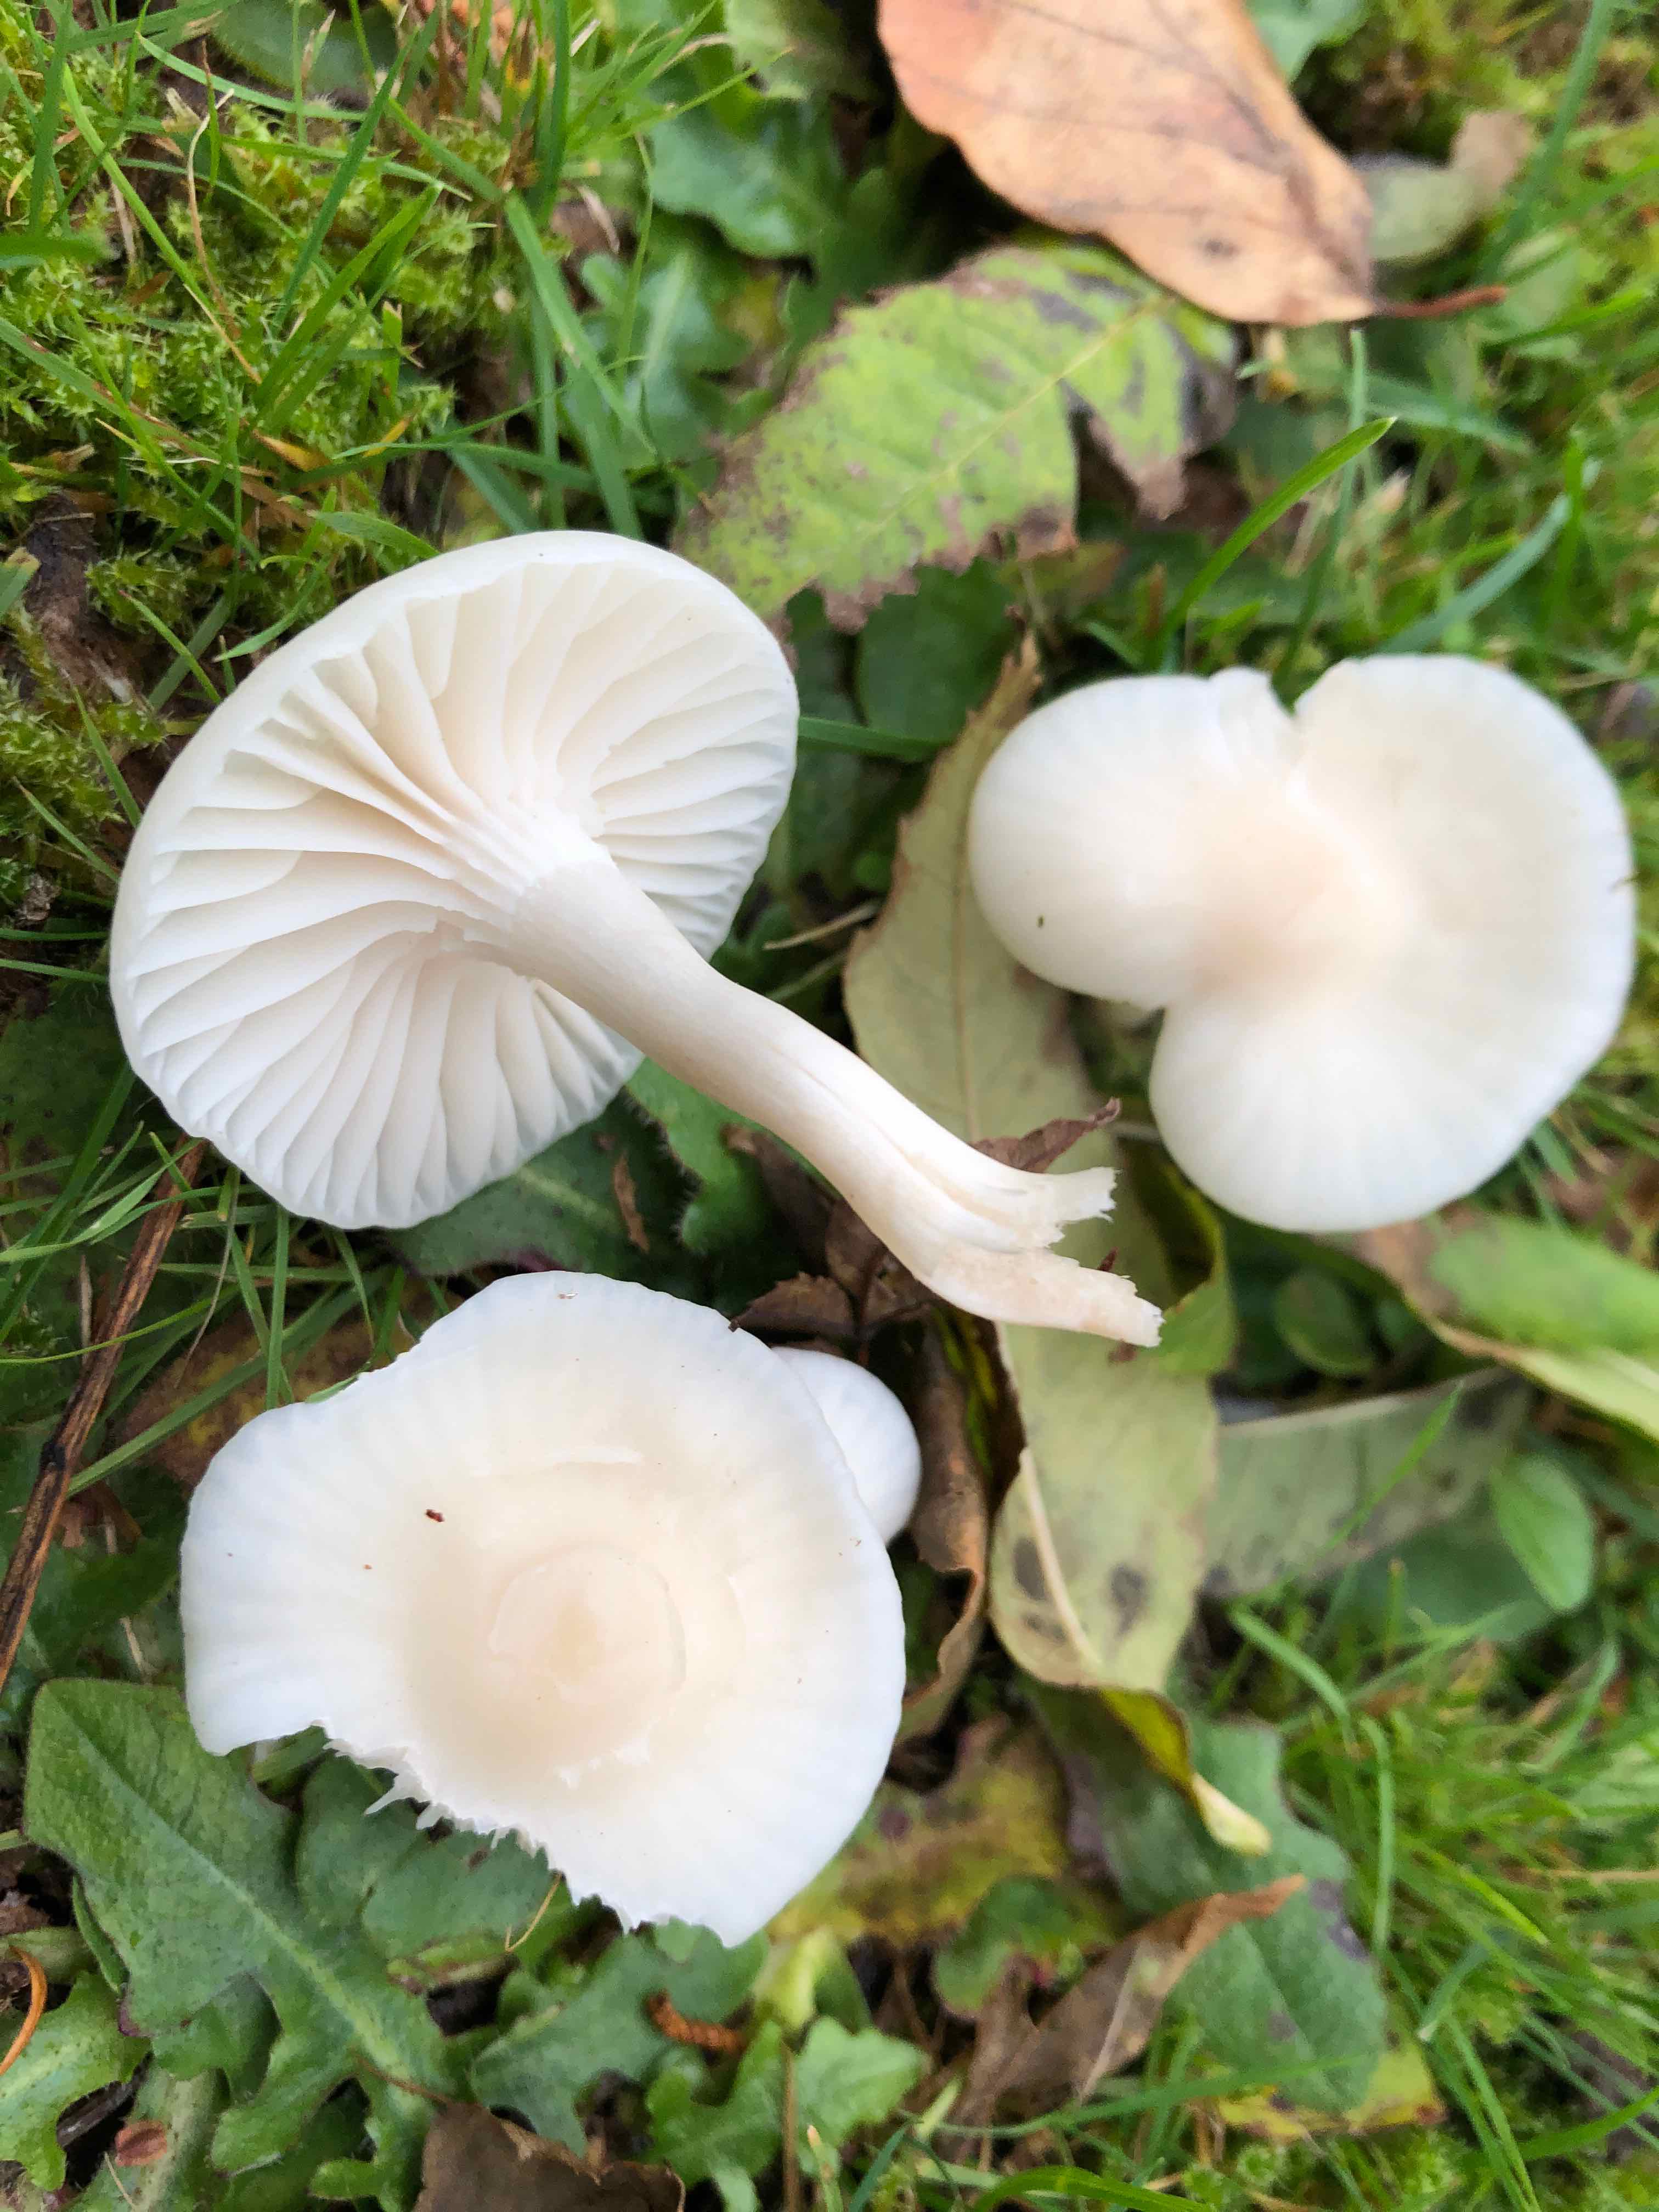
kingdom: Fungi
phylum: Basidiomycota
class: Agaricomycetes
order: Agaricales
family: Hygrophoraceae
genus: Cuphophyllus
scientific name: Cuphophyllus virgineus
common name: snehvid vokshat
